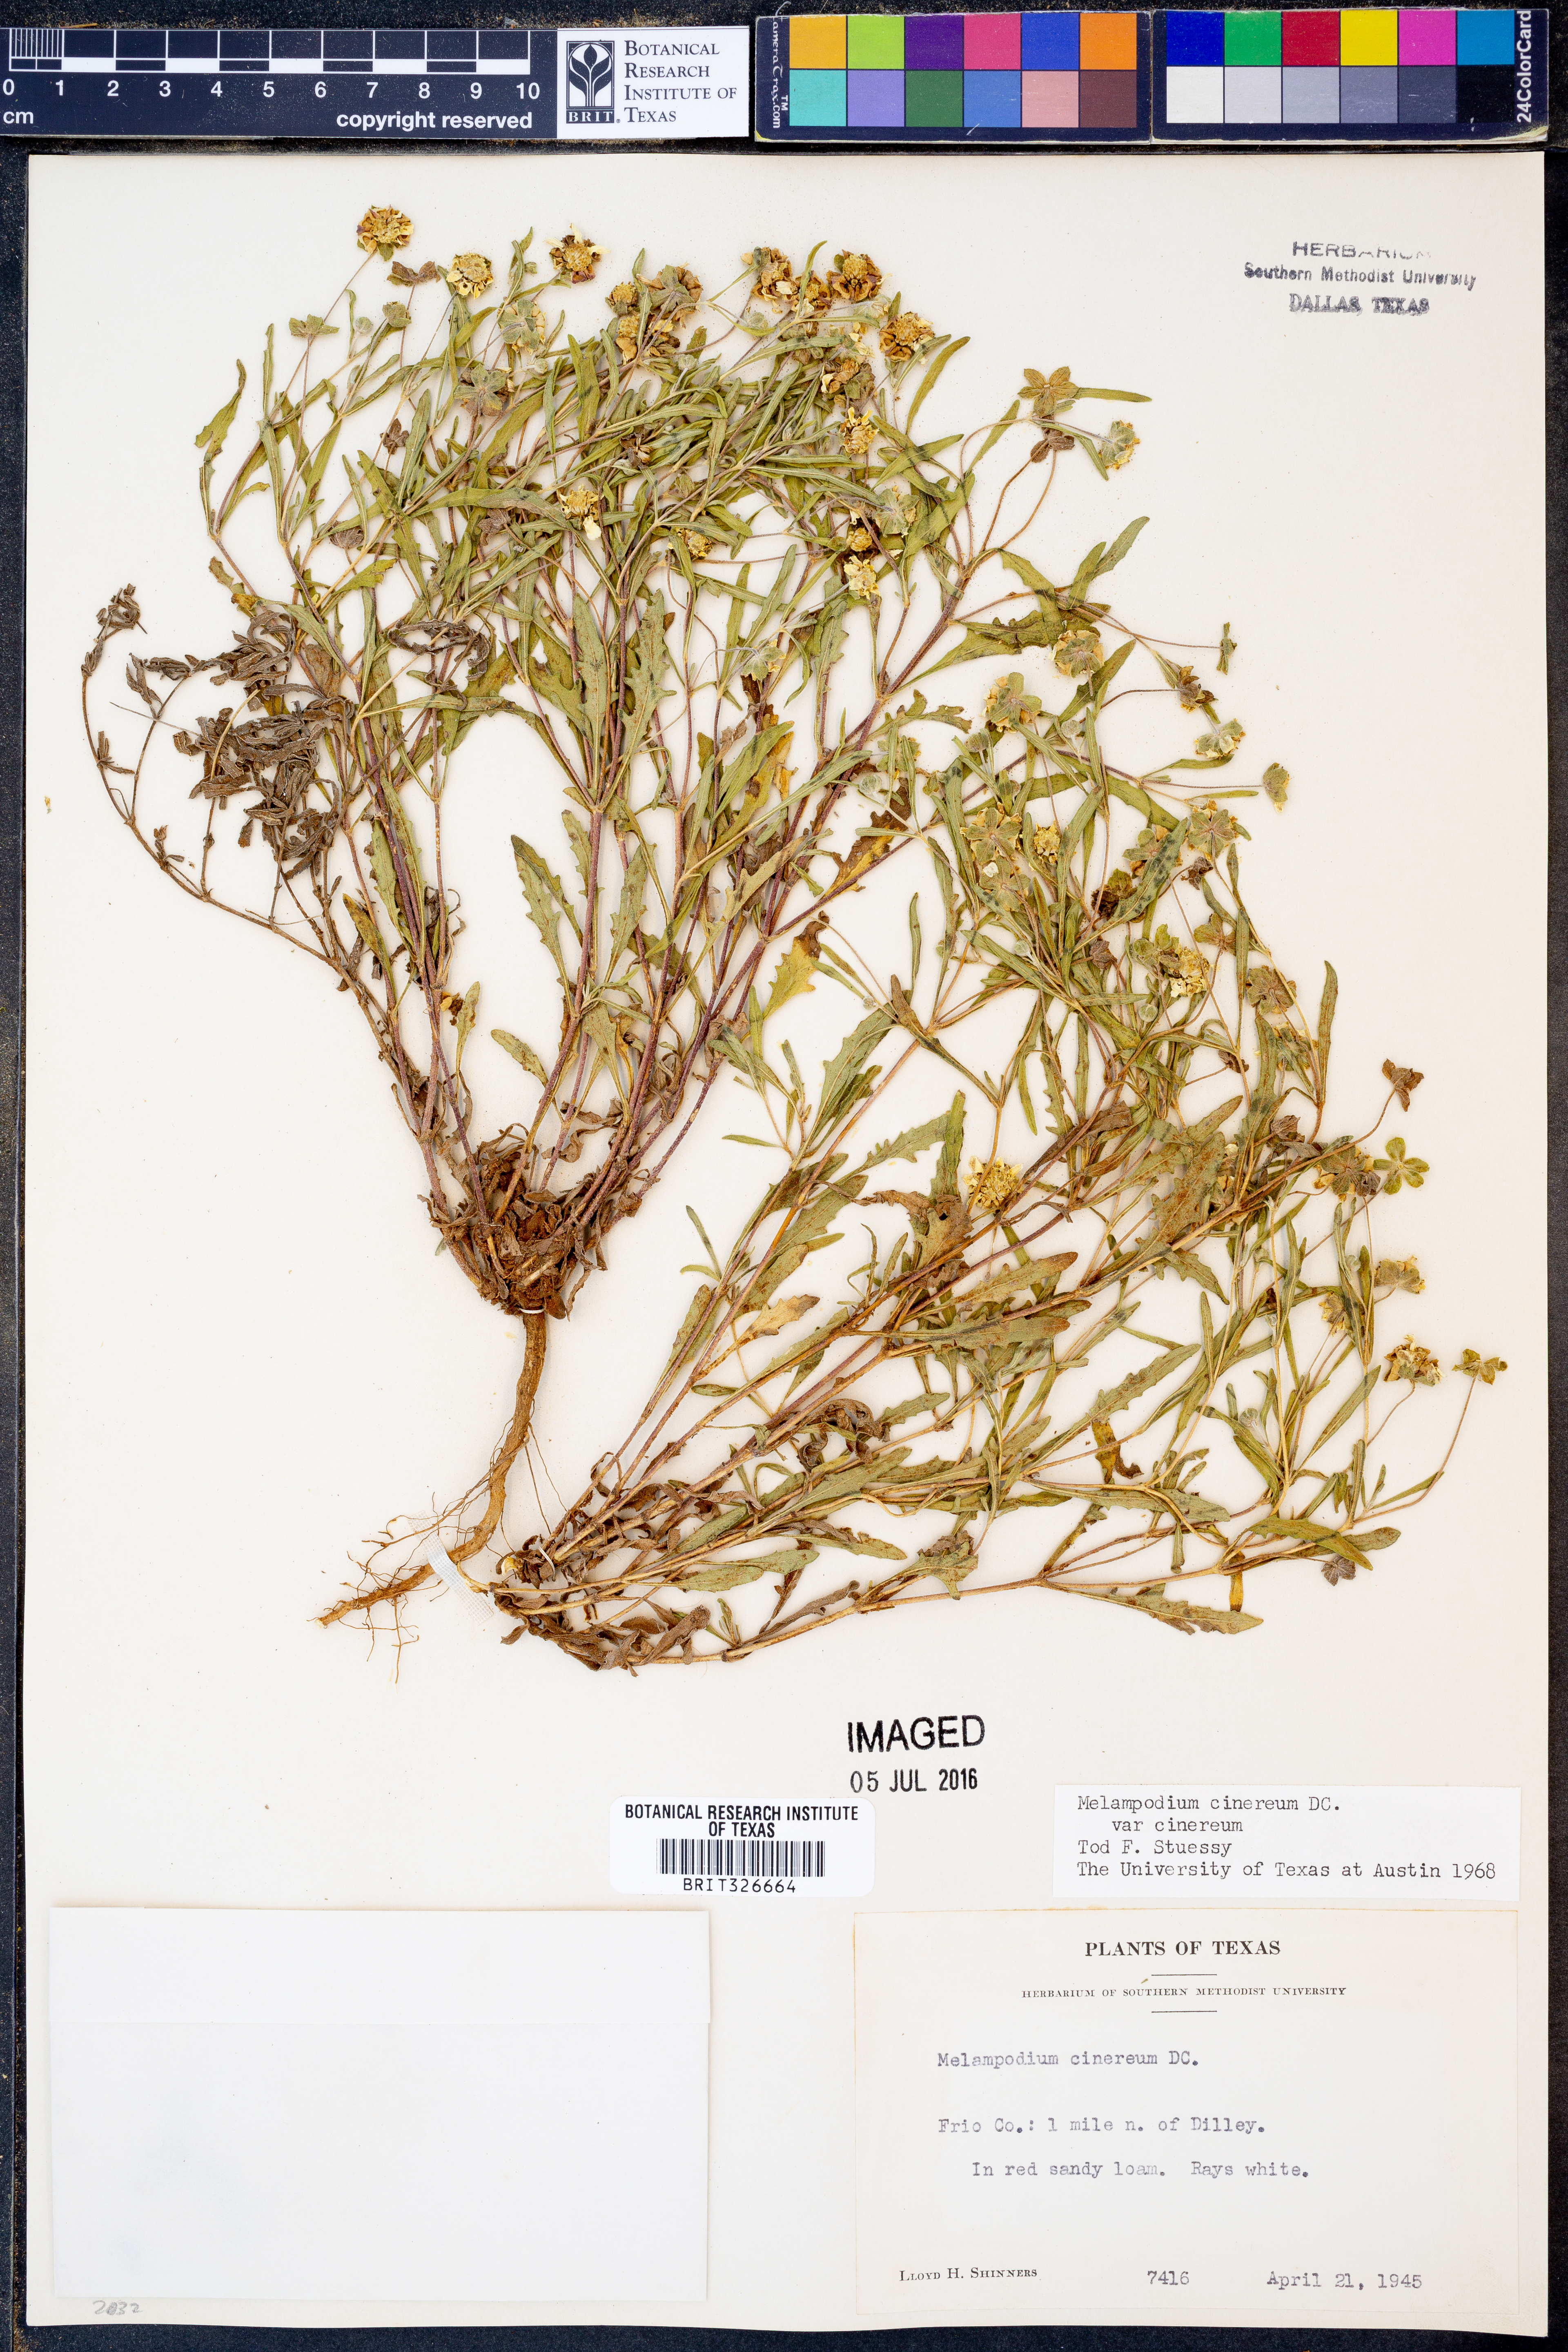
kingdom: Plantae
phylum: Tracheophyta
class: Magnoliopsida
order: Asterales
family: Asteraceae
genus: Melampodium
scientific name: Melampodium cinereum
